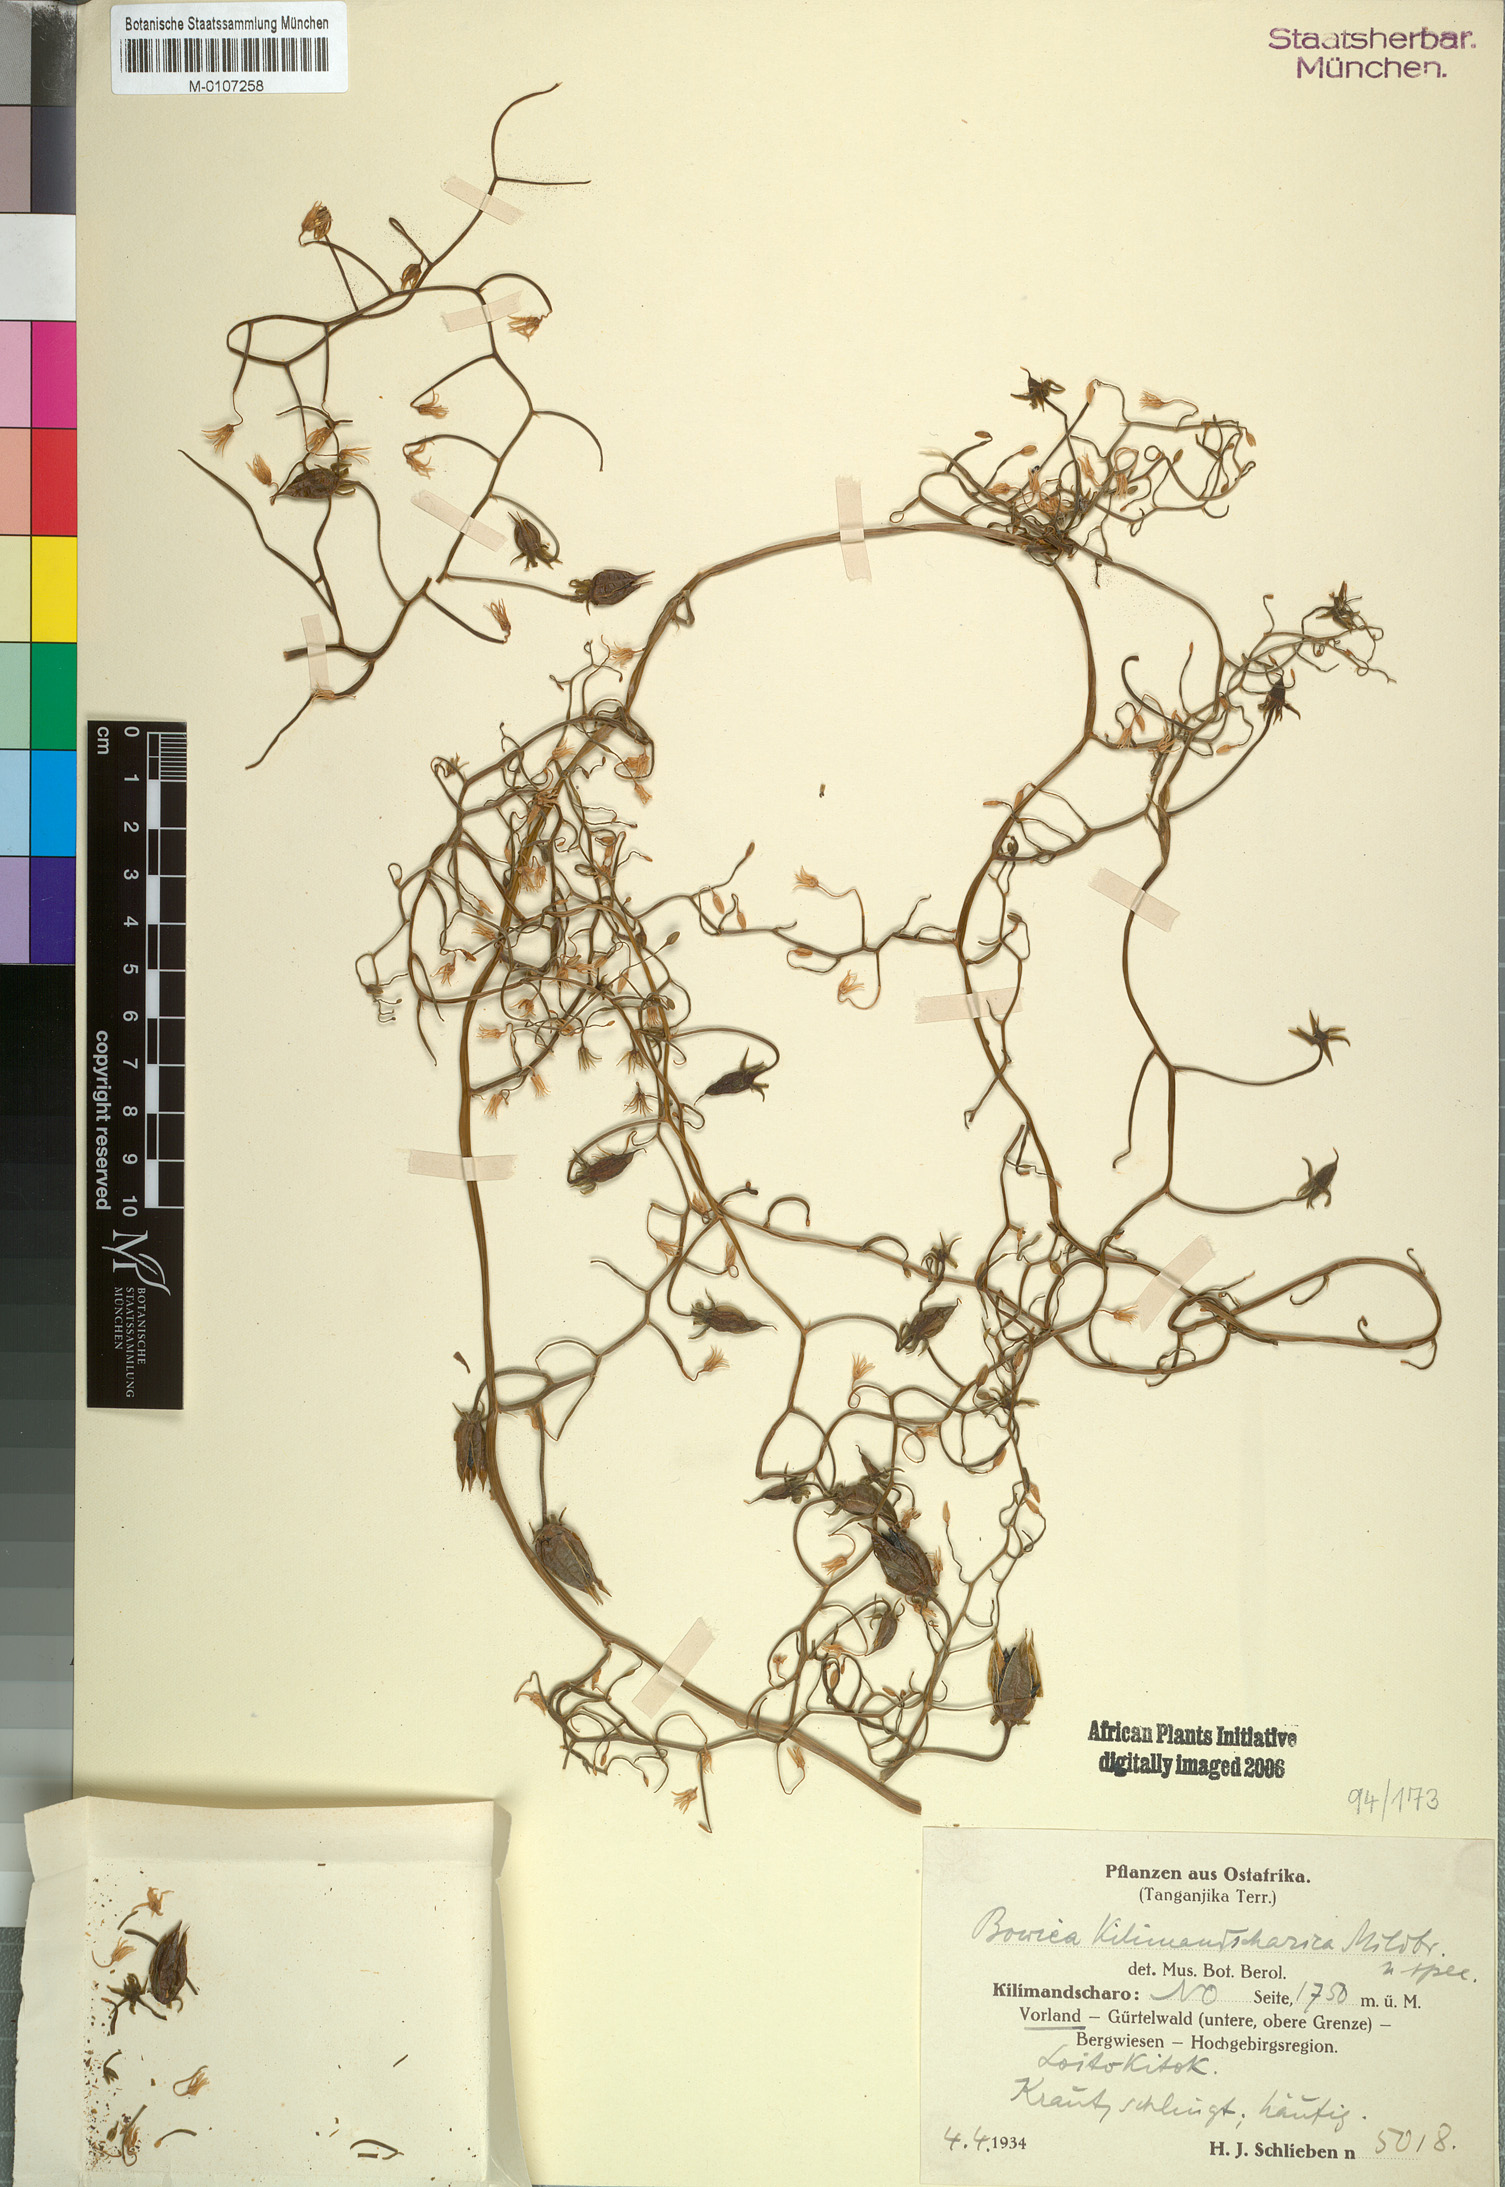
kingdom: Plantae
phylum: Tracheophyta
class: Liliopsida
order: Asparagales
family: Asparagaceae
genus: Bowiea
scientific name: Bowiea volubilis
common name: Climbing-onion
